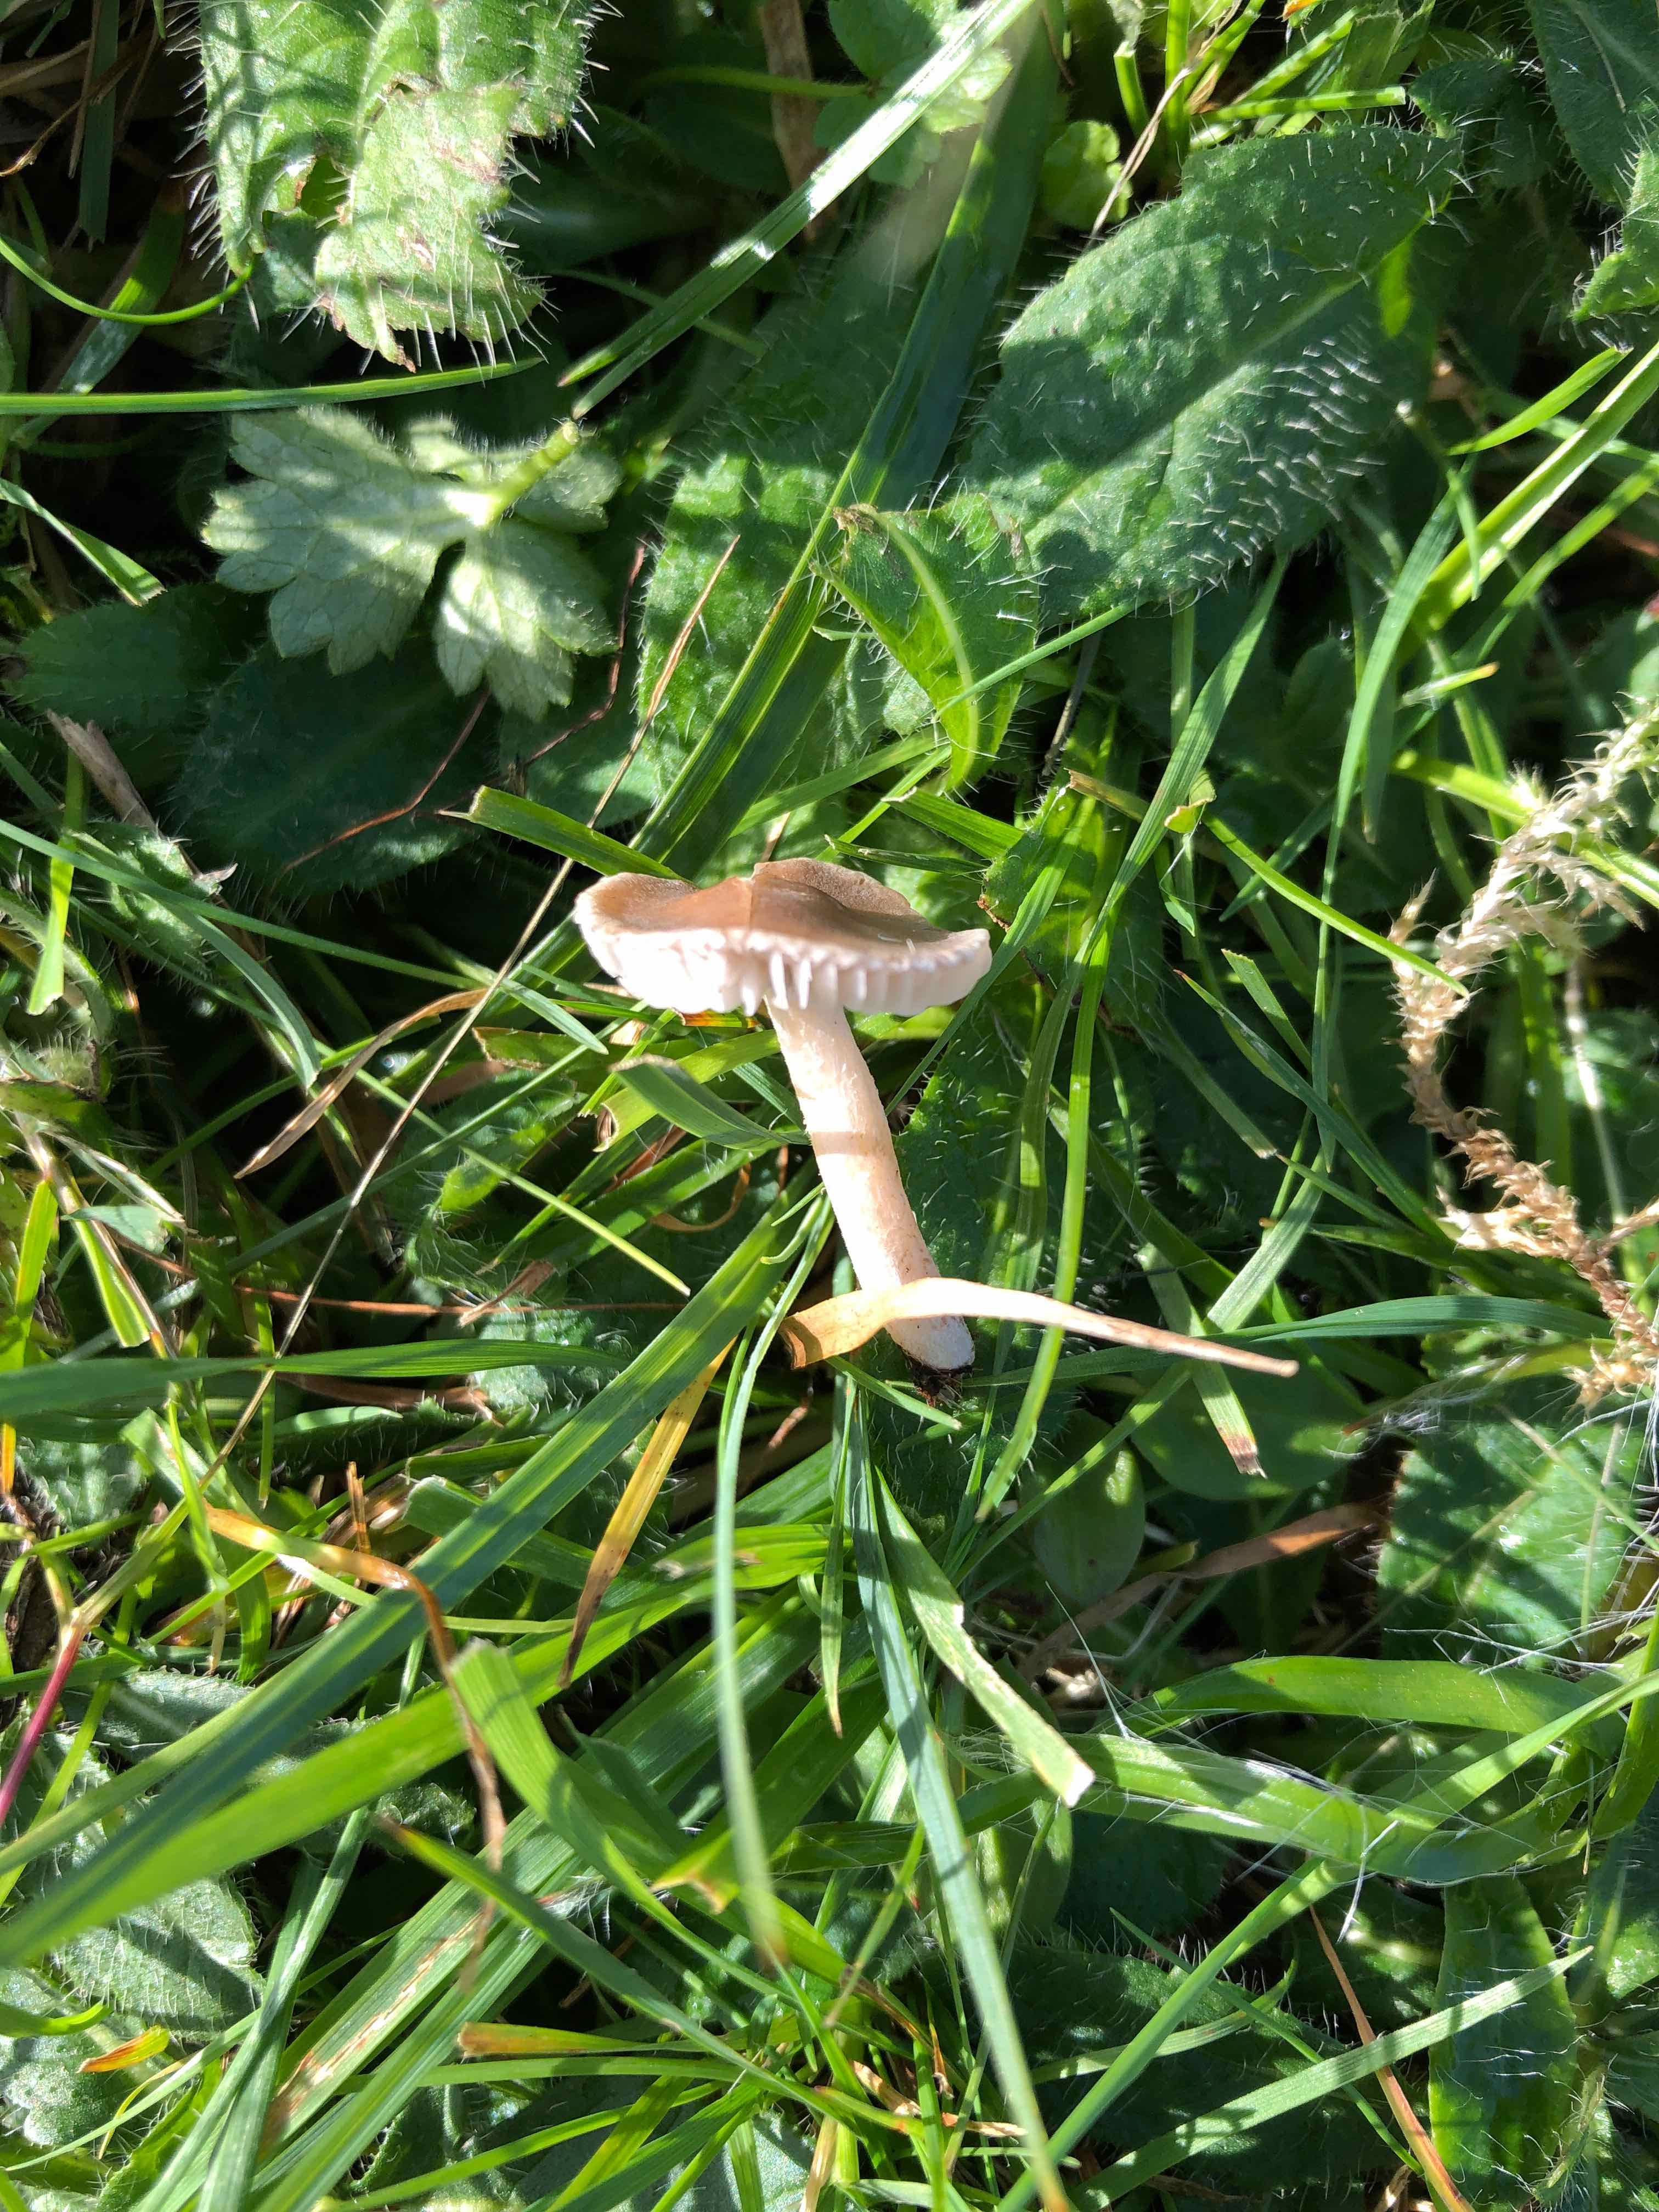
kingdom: Fungi
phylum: Basidiomycota
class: Agaricomycetes
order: Agaricales
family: Tricholomataceae
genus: Dermoloma
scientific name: Dermoloma cuneifolium
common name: eng-nonnehat
